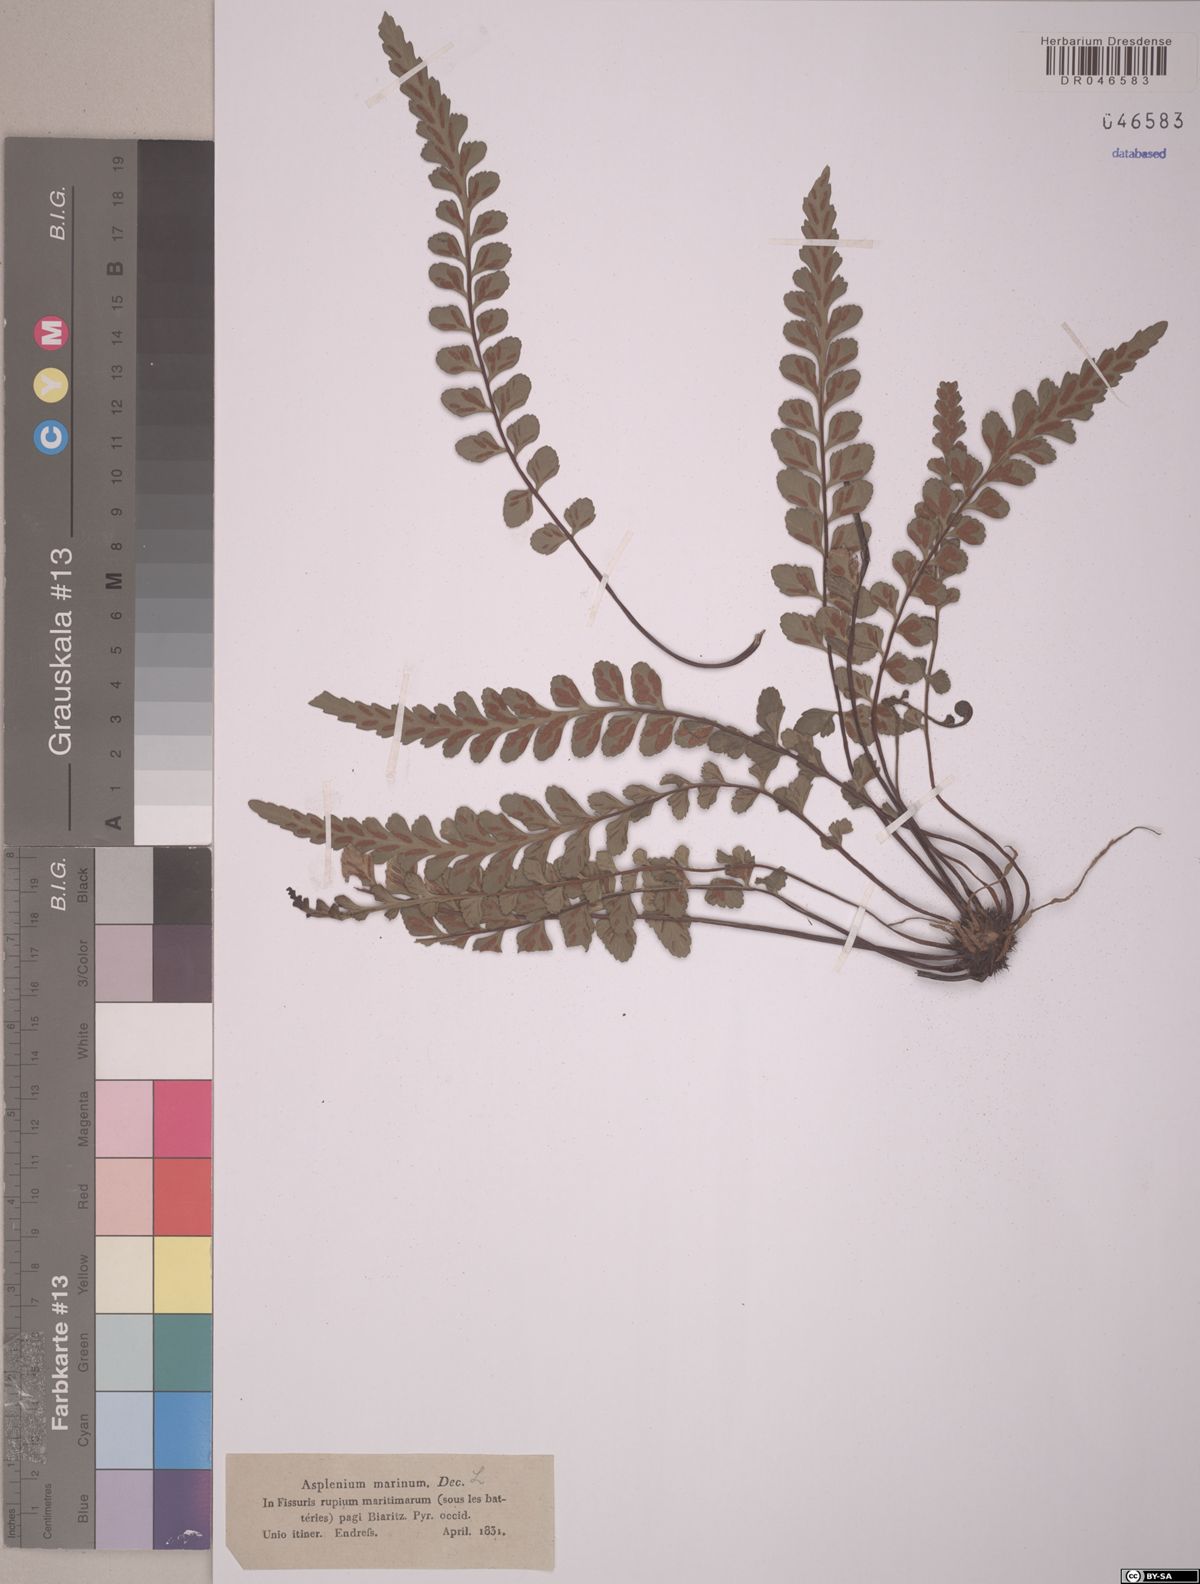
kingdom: Plantae
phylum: Tracheophyta
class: Polypodiopsida
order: Polypodiales
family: Aspleniaceae
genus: Asplenium
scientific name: Asplenium marinum
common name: Sea spleenwort
